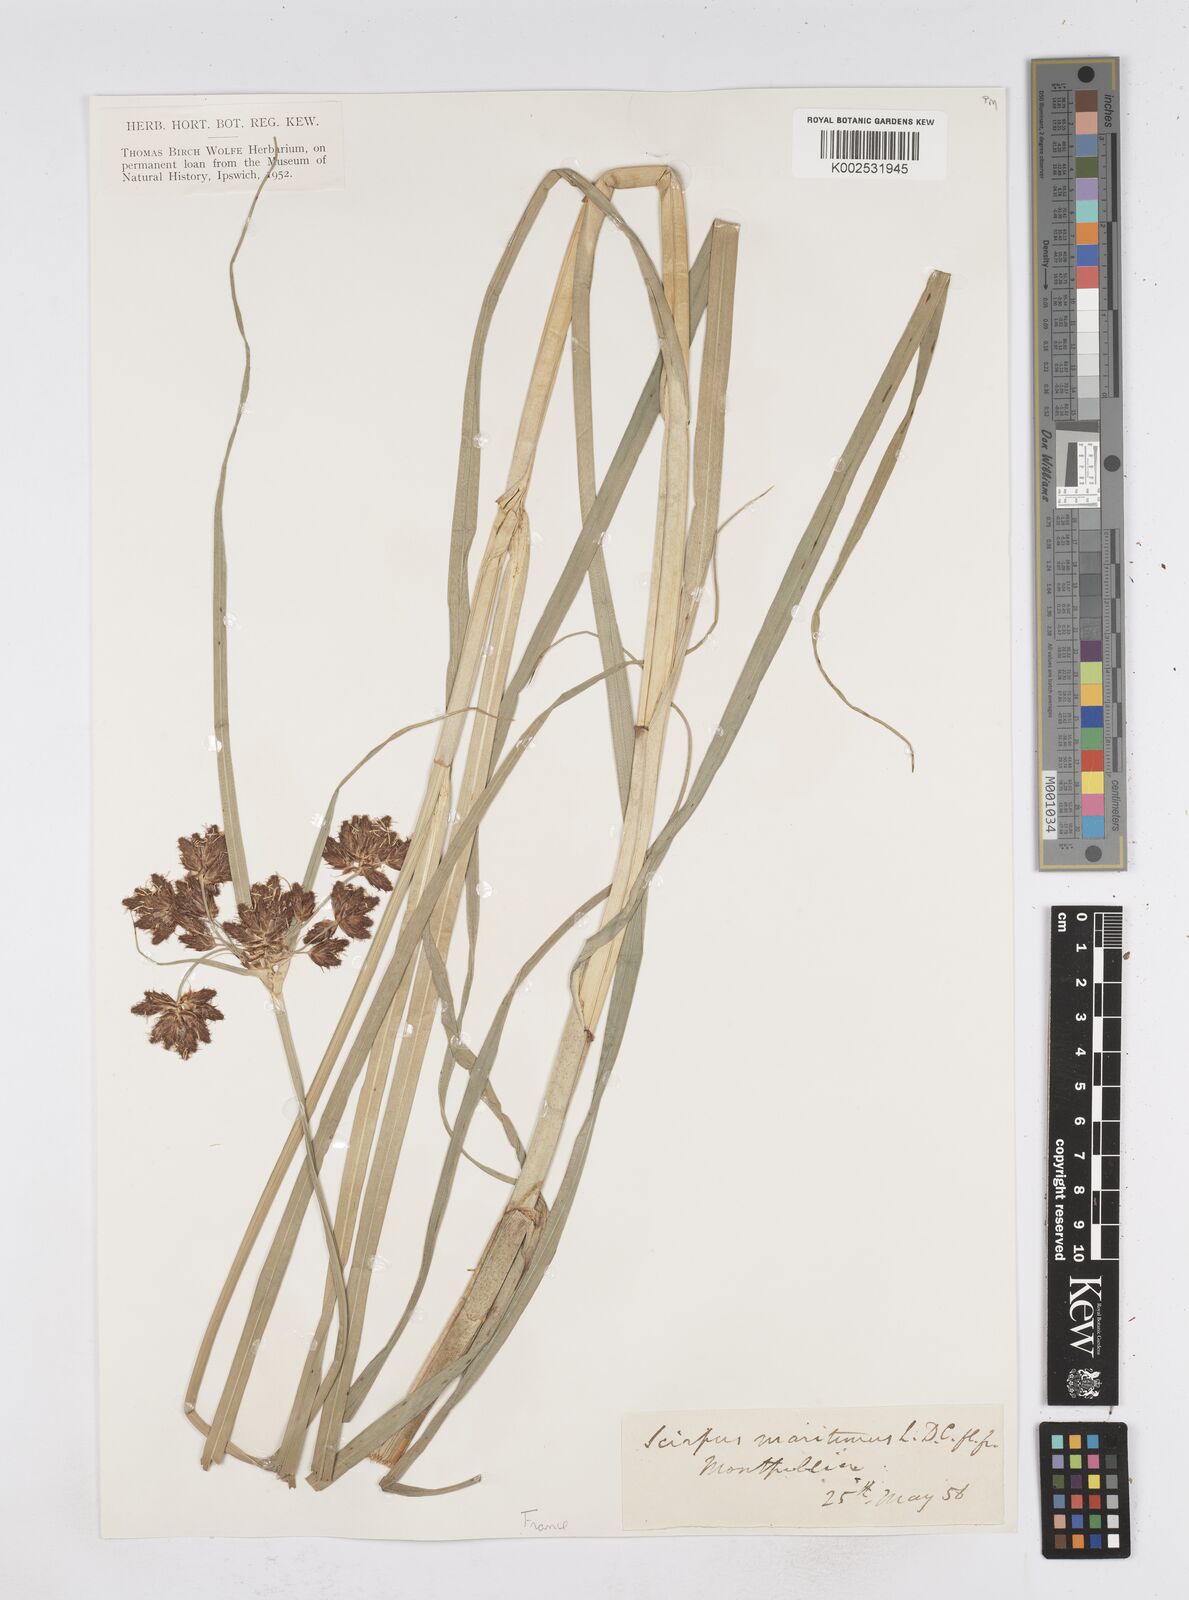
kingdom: Plantae
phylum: Tracheophyta
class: Liliopsida
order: Poales
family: Cyperaceae
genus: Bolboschoenus
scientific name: Bolboschoenus maritimus
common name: Sea club-rush
